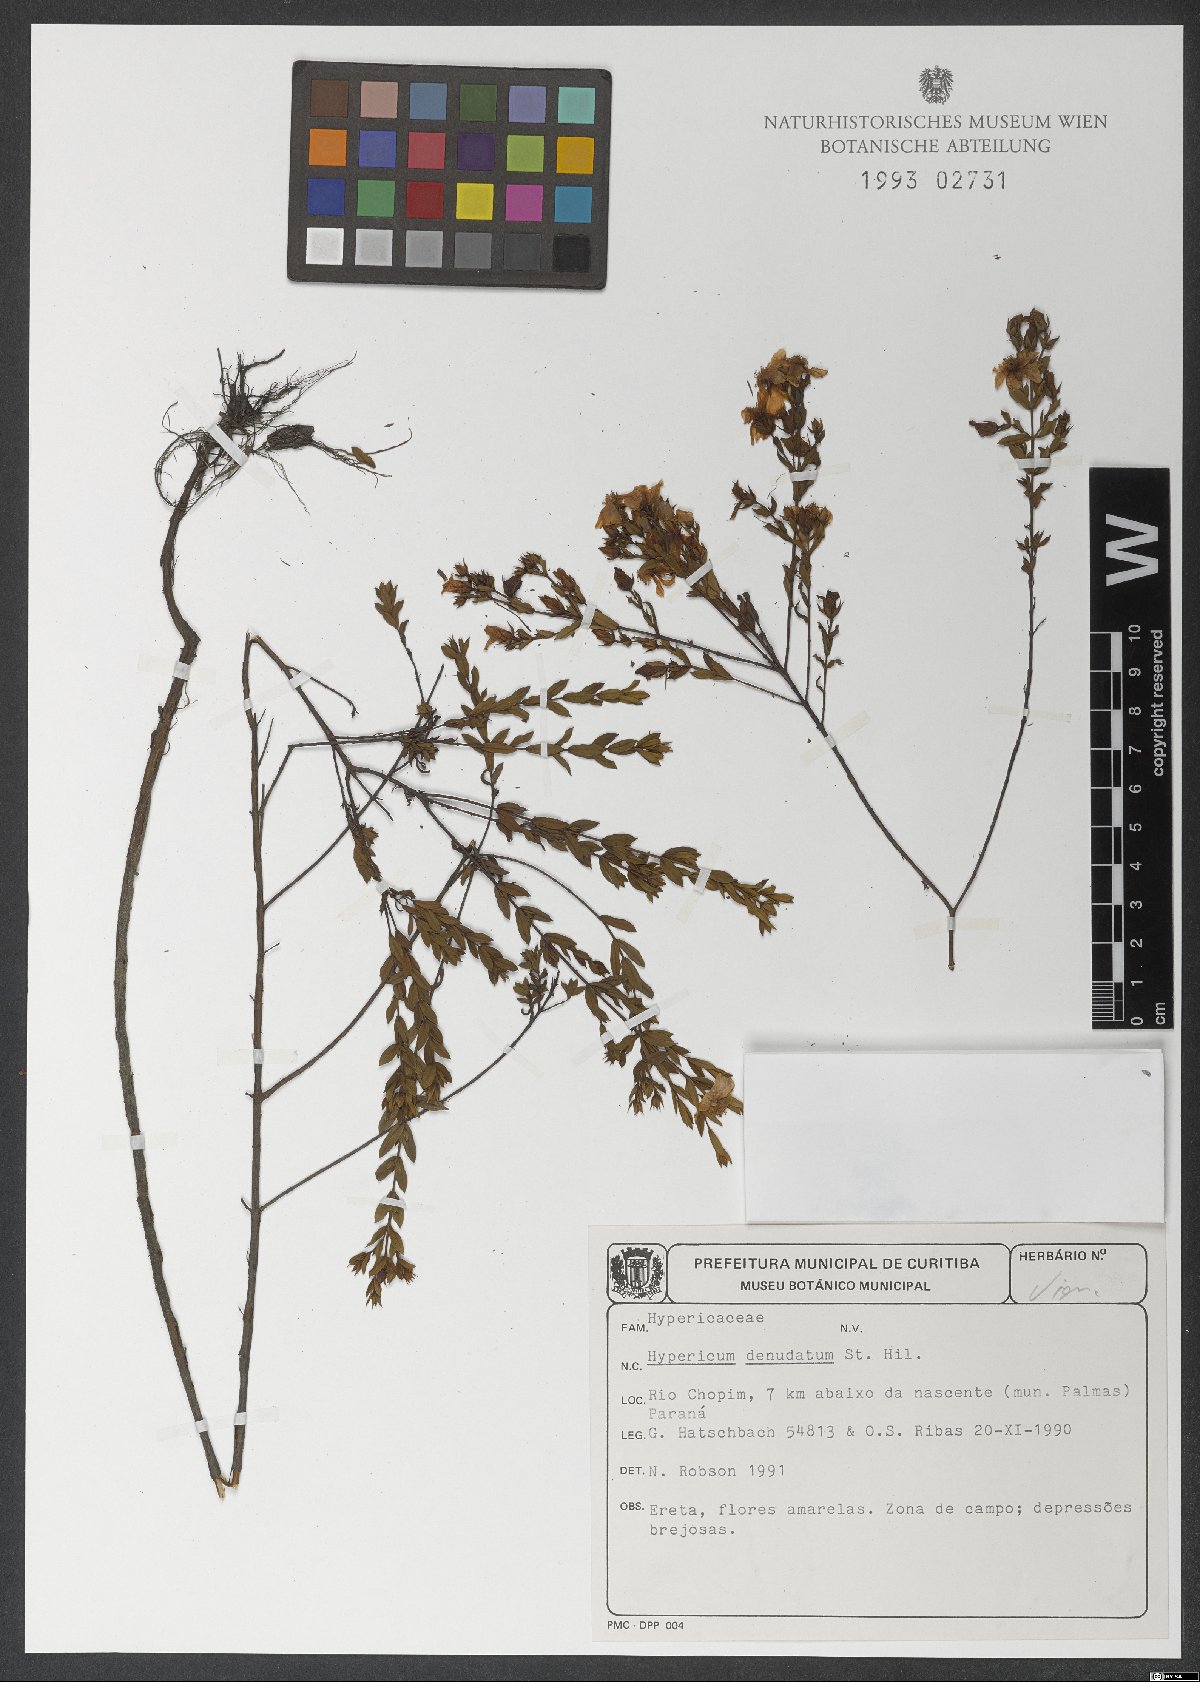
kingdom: Plantae
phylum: Tracheophyta
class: Magnoliopsida
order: Malpighiales
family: Hypericaceae
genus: Hypericum
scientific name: Hypericum denudatum
